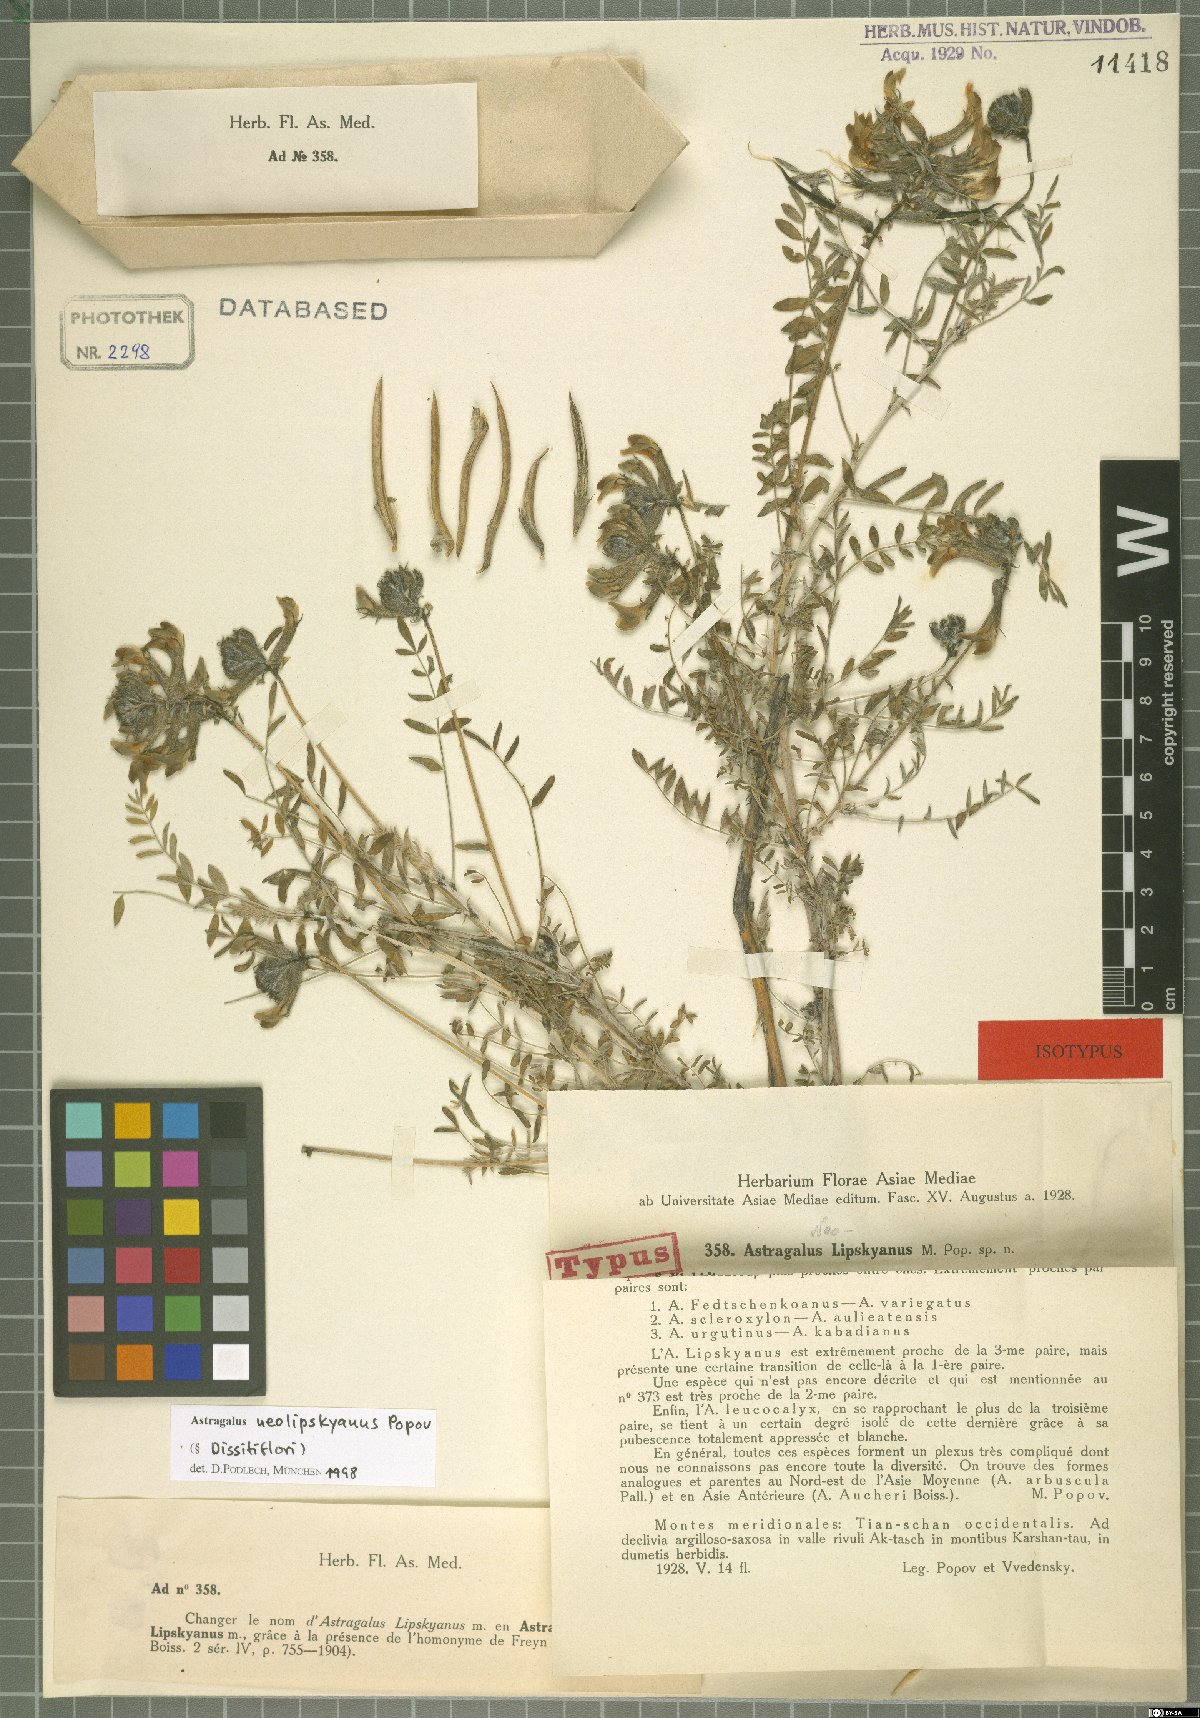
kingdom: Plantae
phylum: Tracheophyta
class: Magnoliopsida
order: Fabales
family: Fabaceae
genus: Astragalus
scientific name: Astragalus neolipskyanus
